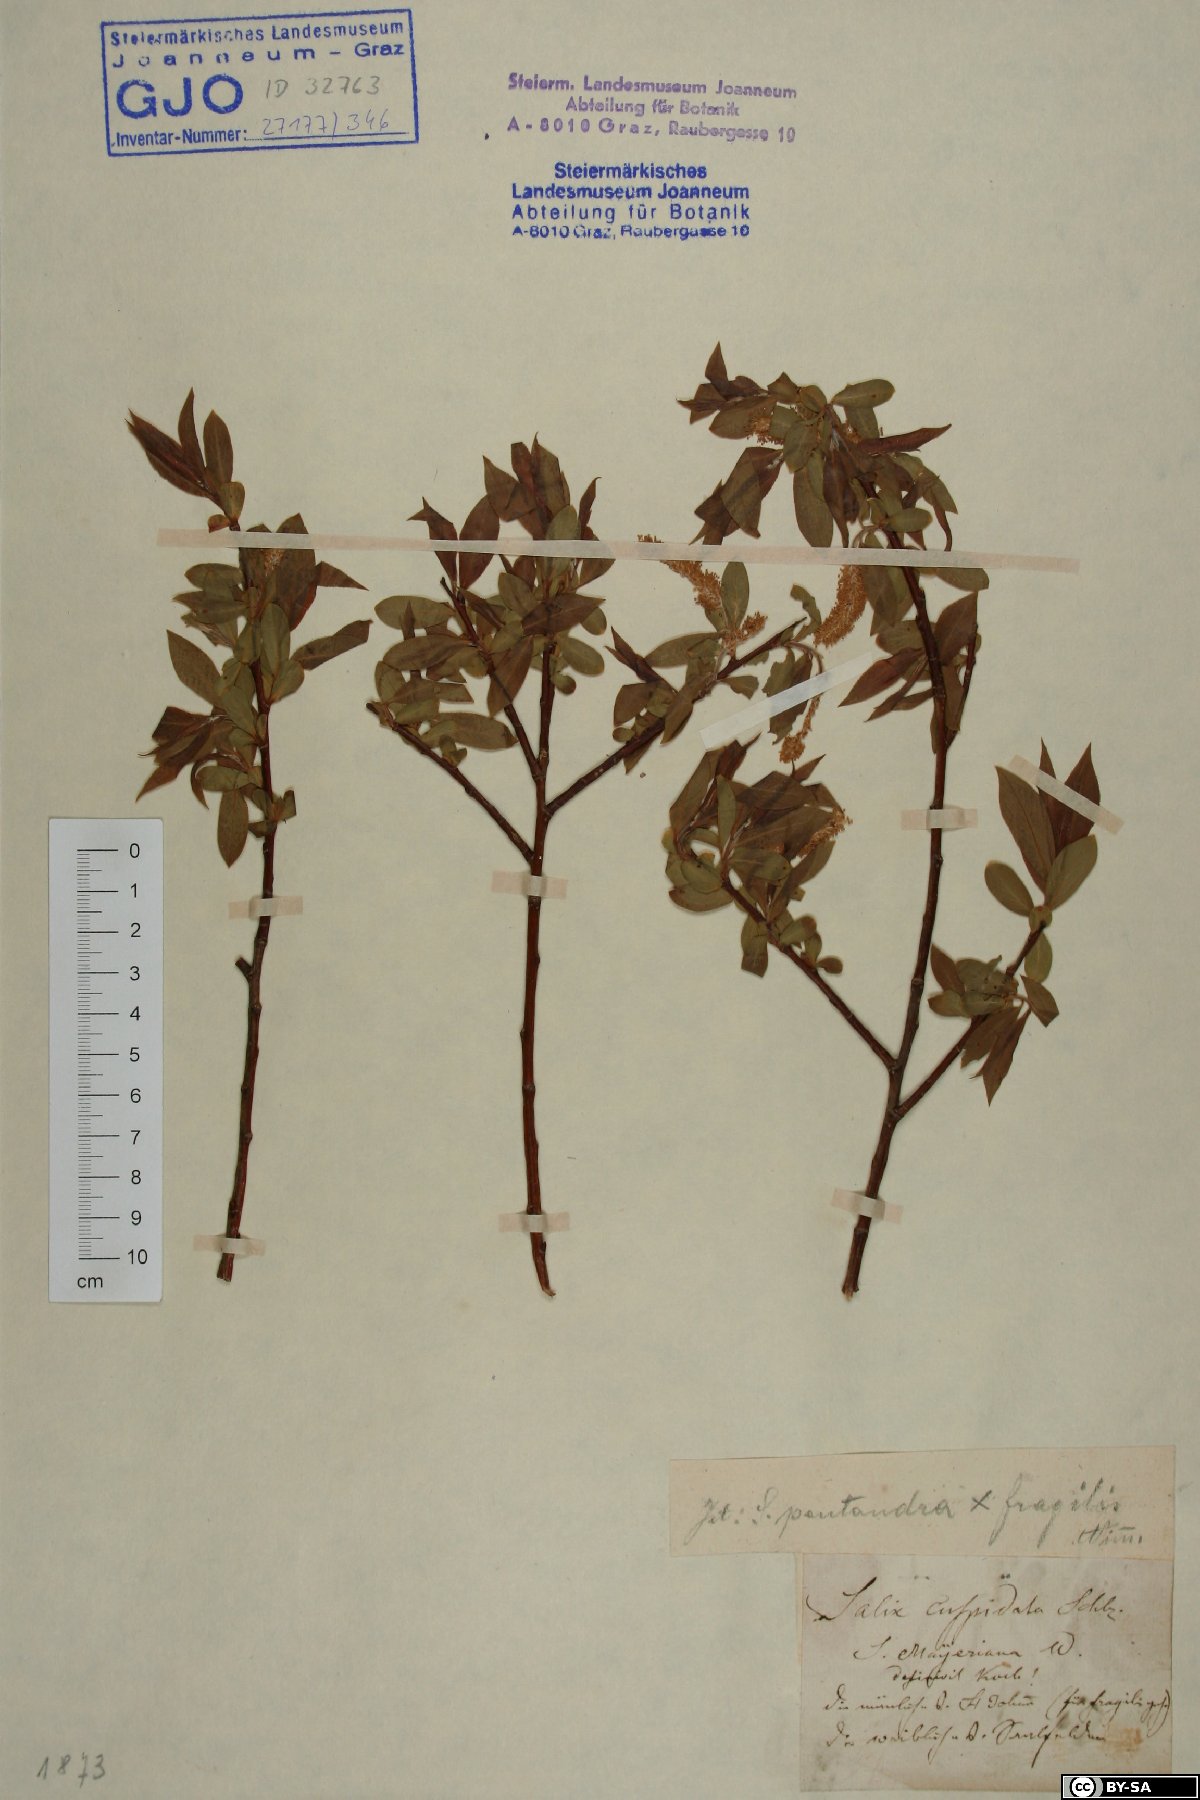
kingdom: Plantae
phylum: Tracheophyta
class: Magnoliopsida
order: Malpighiales
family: Salicaceae
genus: Salix
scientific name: Salix meyeriana
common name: Shiny-leaf willow
